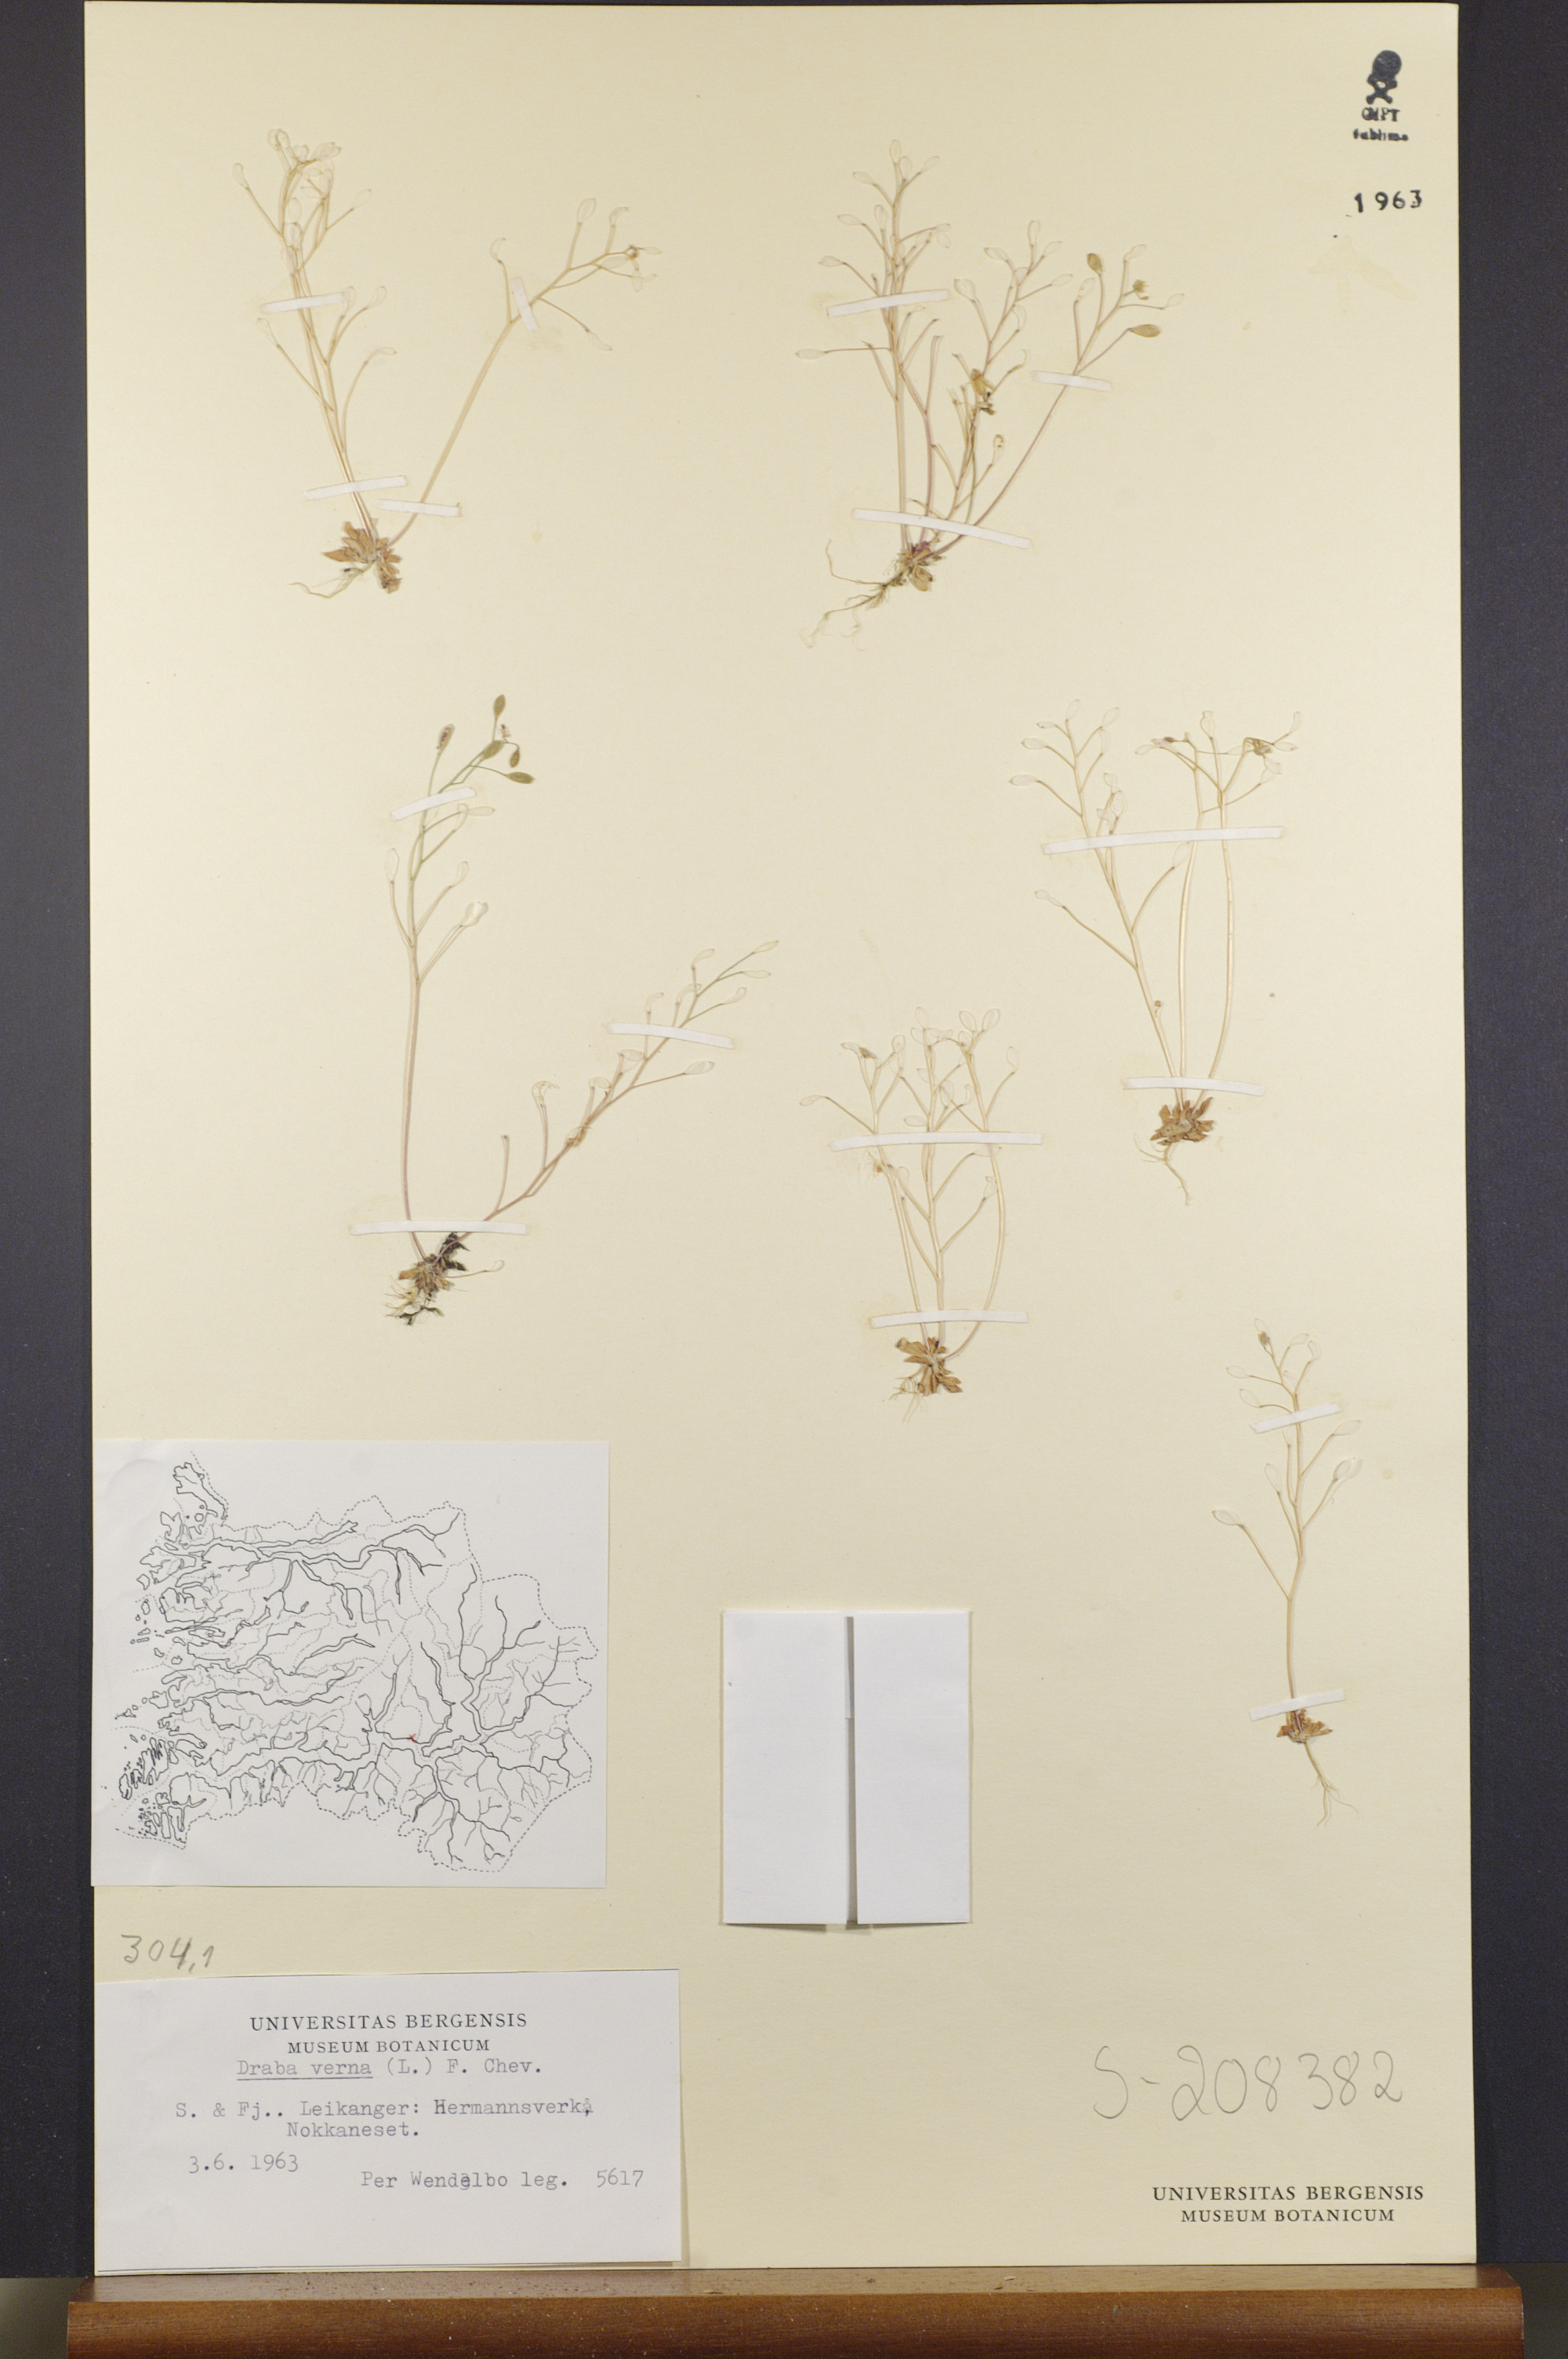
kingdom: Plantae
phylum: Tracheophyta
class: Magnoliopsida
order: Brassicales
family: Brassicaceae
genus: Draba
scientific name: Draba verna
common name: Spring draba
